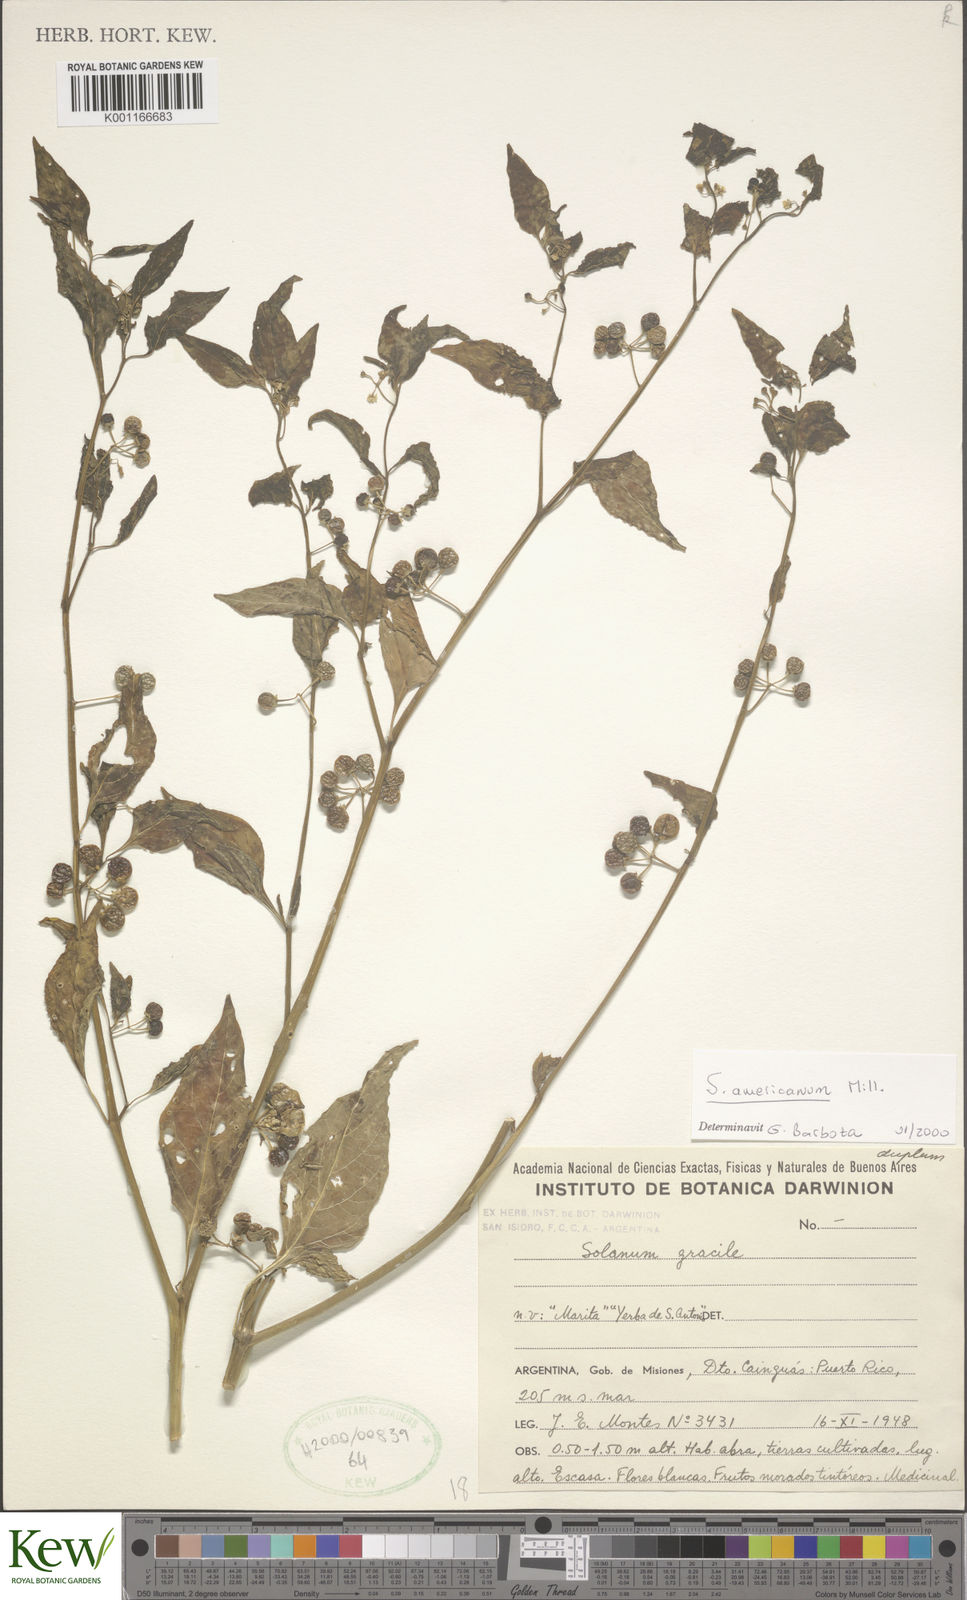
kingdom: Plantae
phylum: Tracheophyta
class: Magnoliopsida
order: Solanales
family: Solanaceae
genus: Solanum
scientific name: Solanum americanum
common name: American black nightshade
